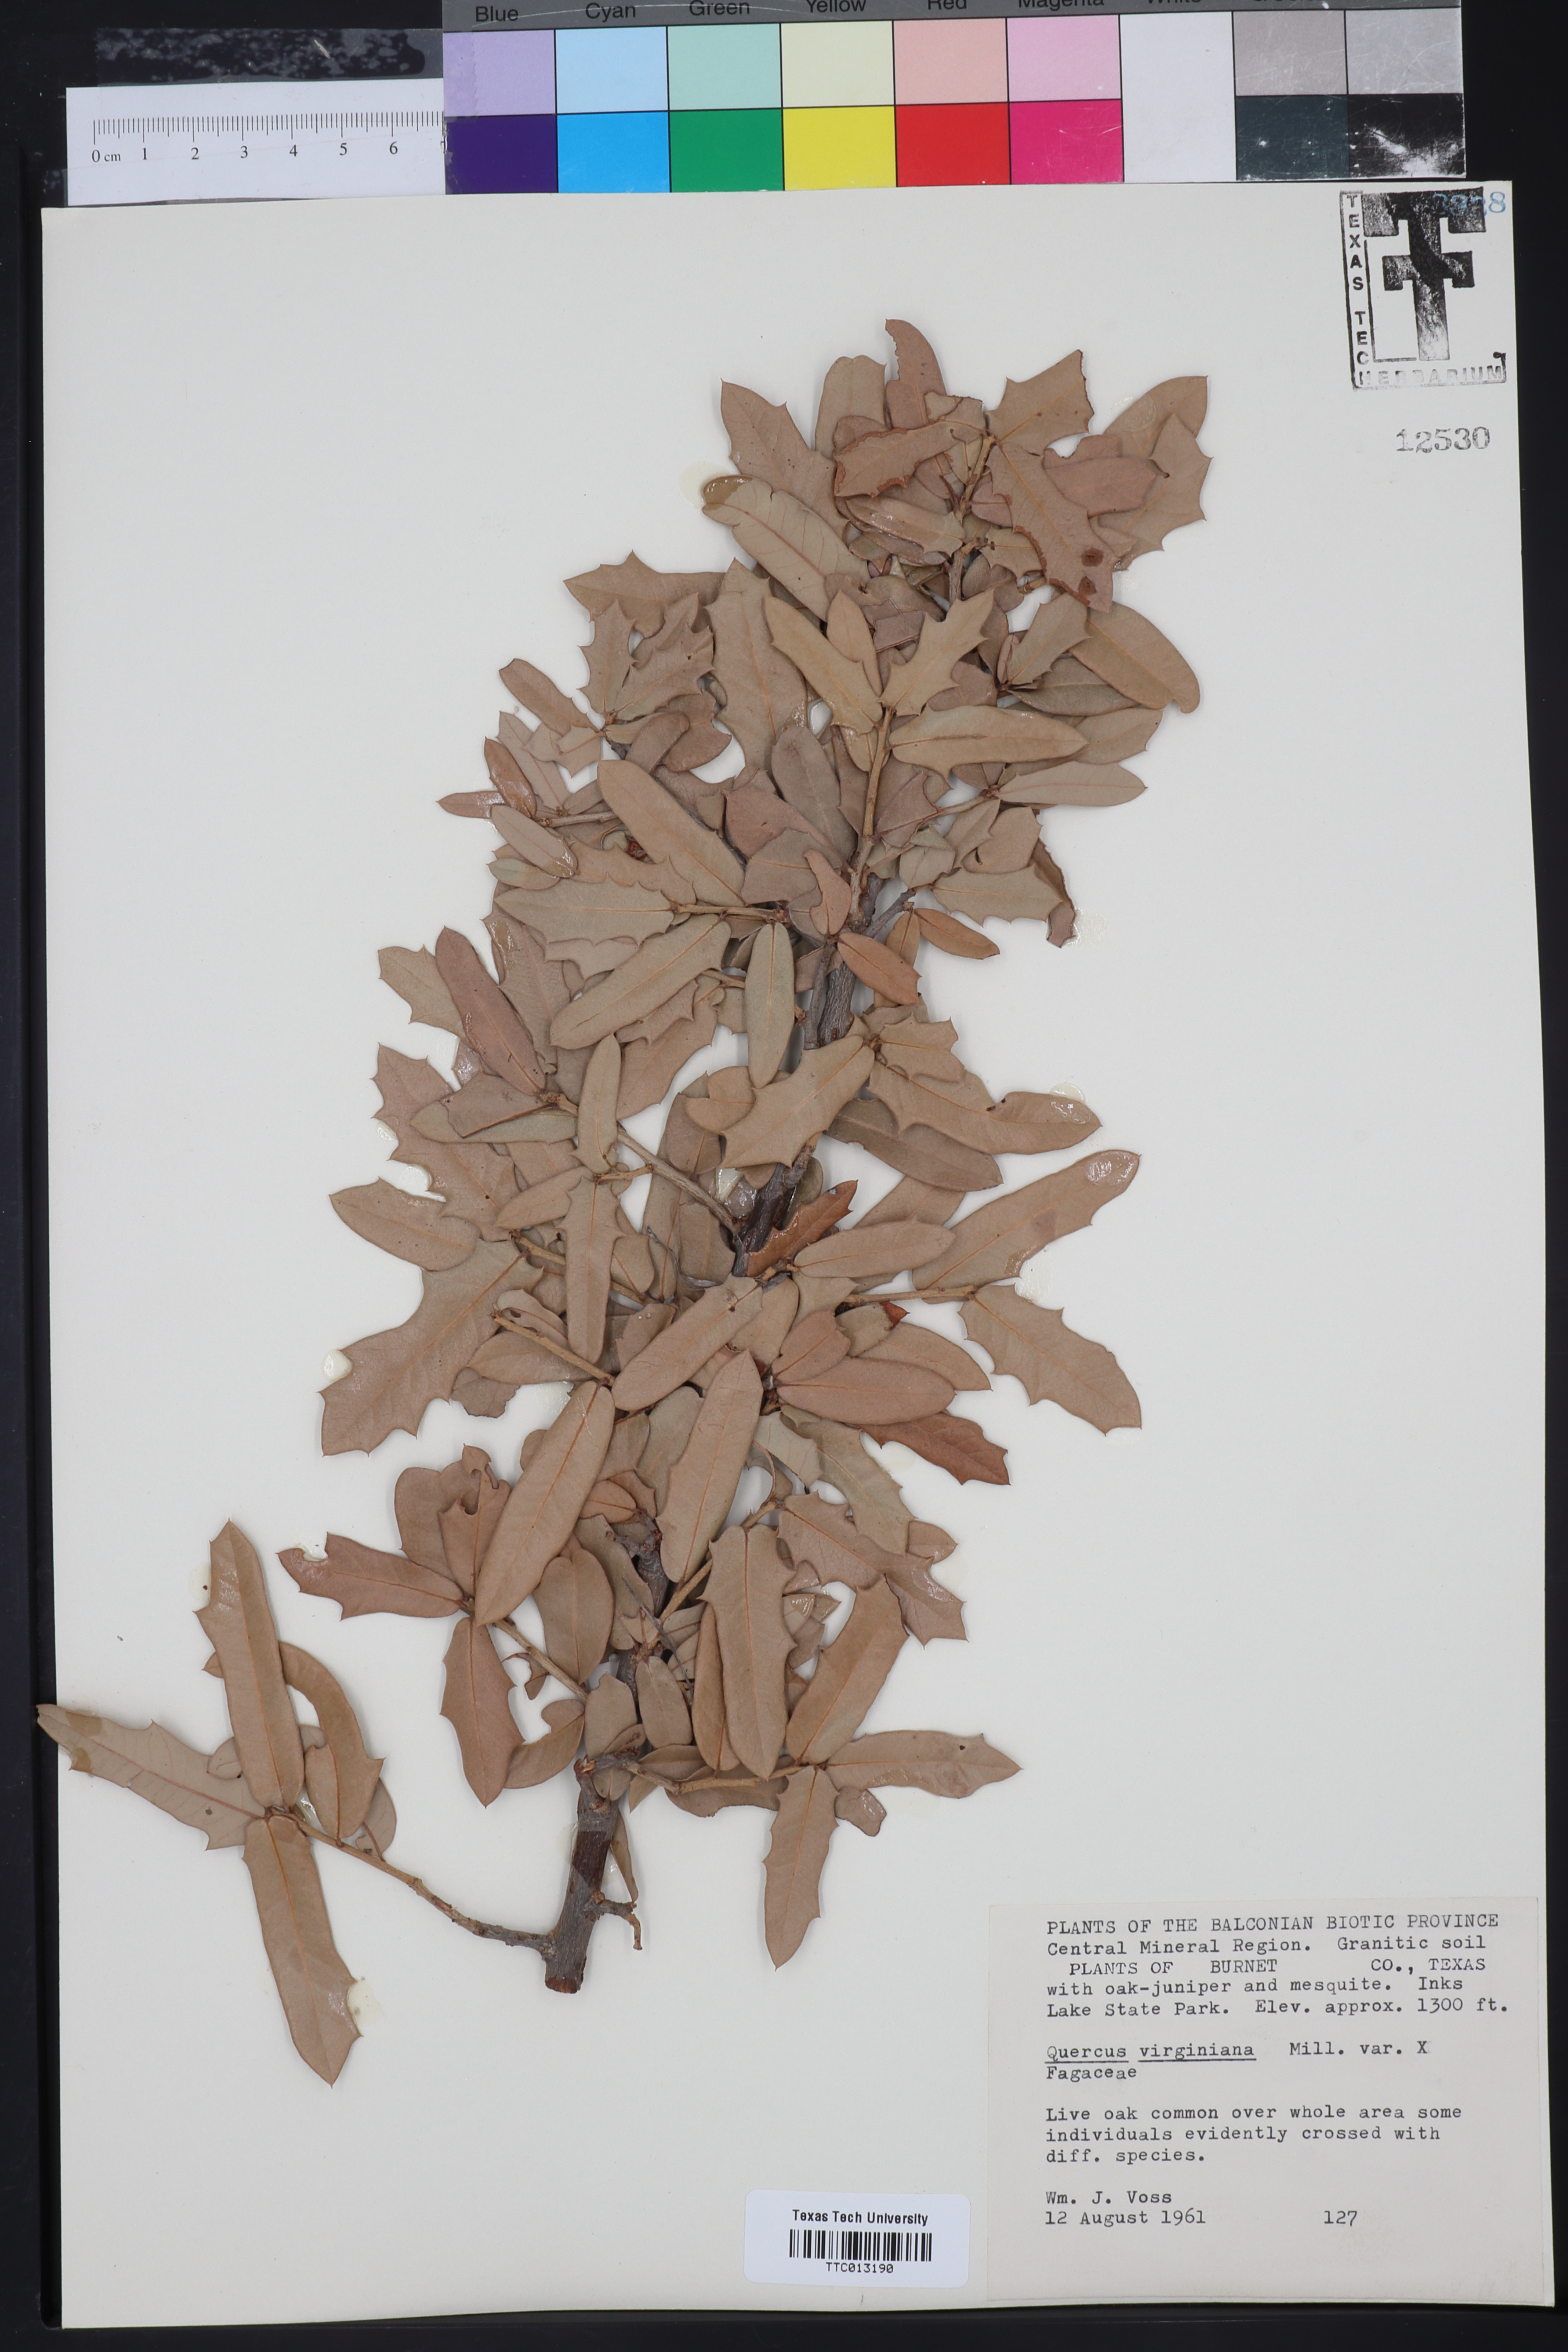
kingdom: Plantae
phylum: Tracheophyta
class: Magnoliopsida
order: Fagales
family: Fagaceae
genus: Quercus
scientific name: Quercus virginiana
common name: Southern live oak
